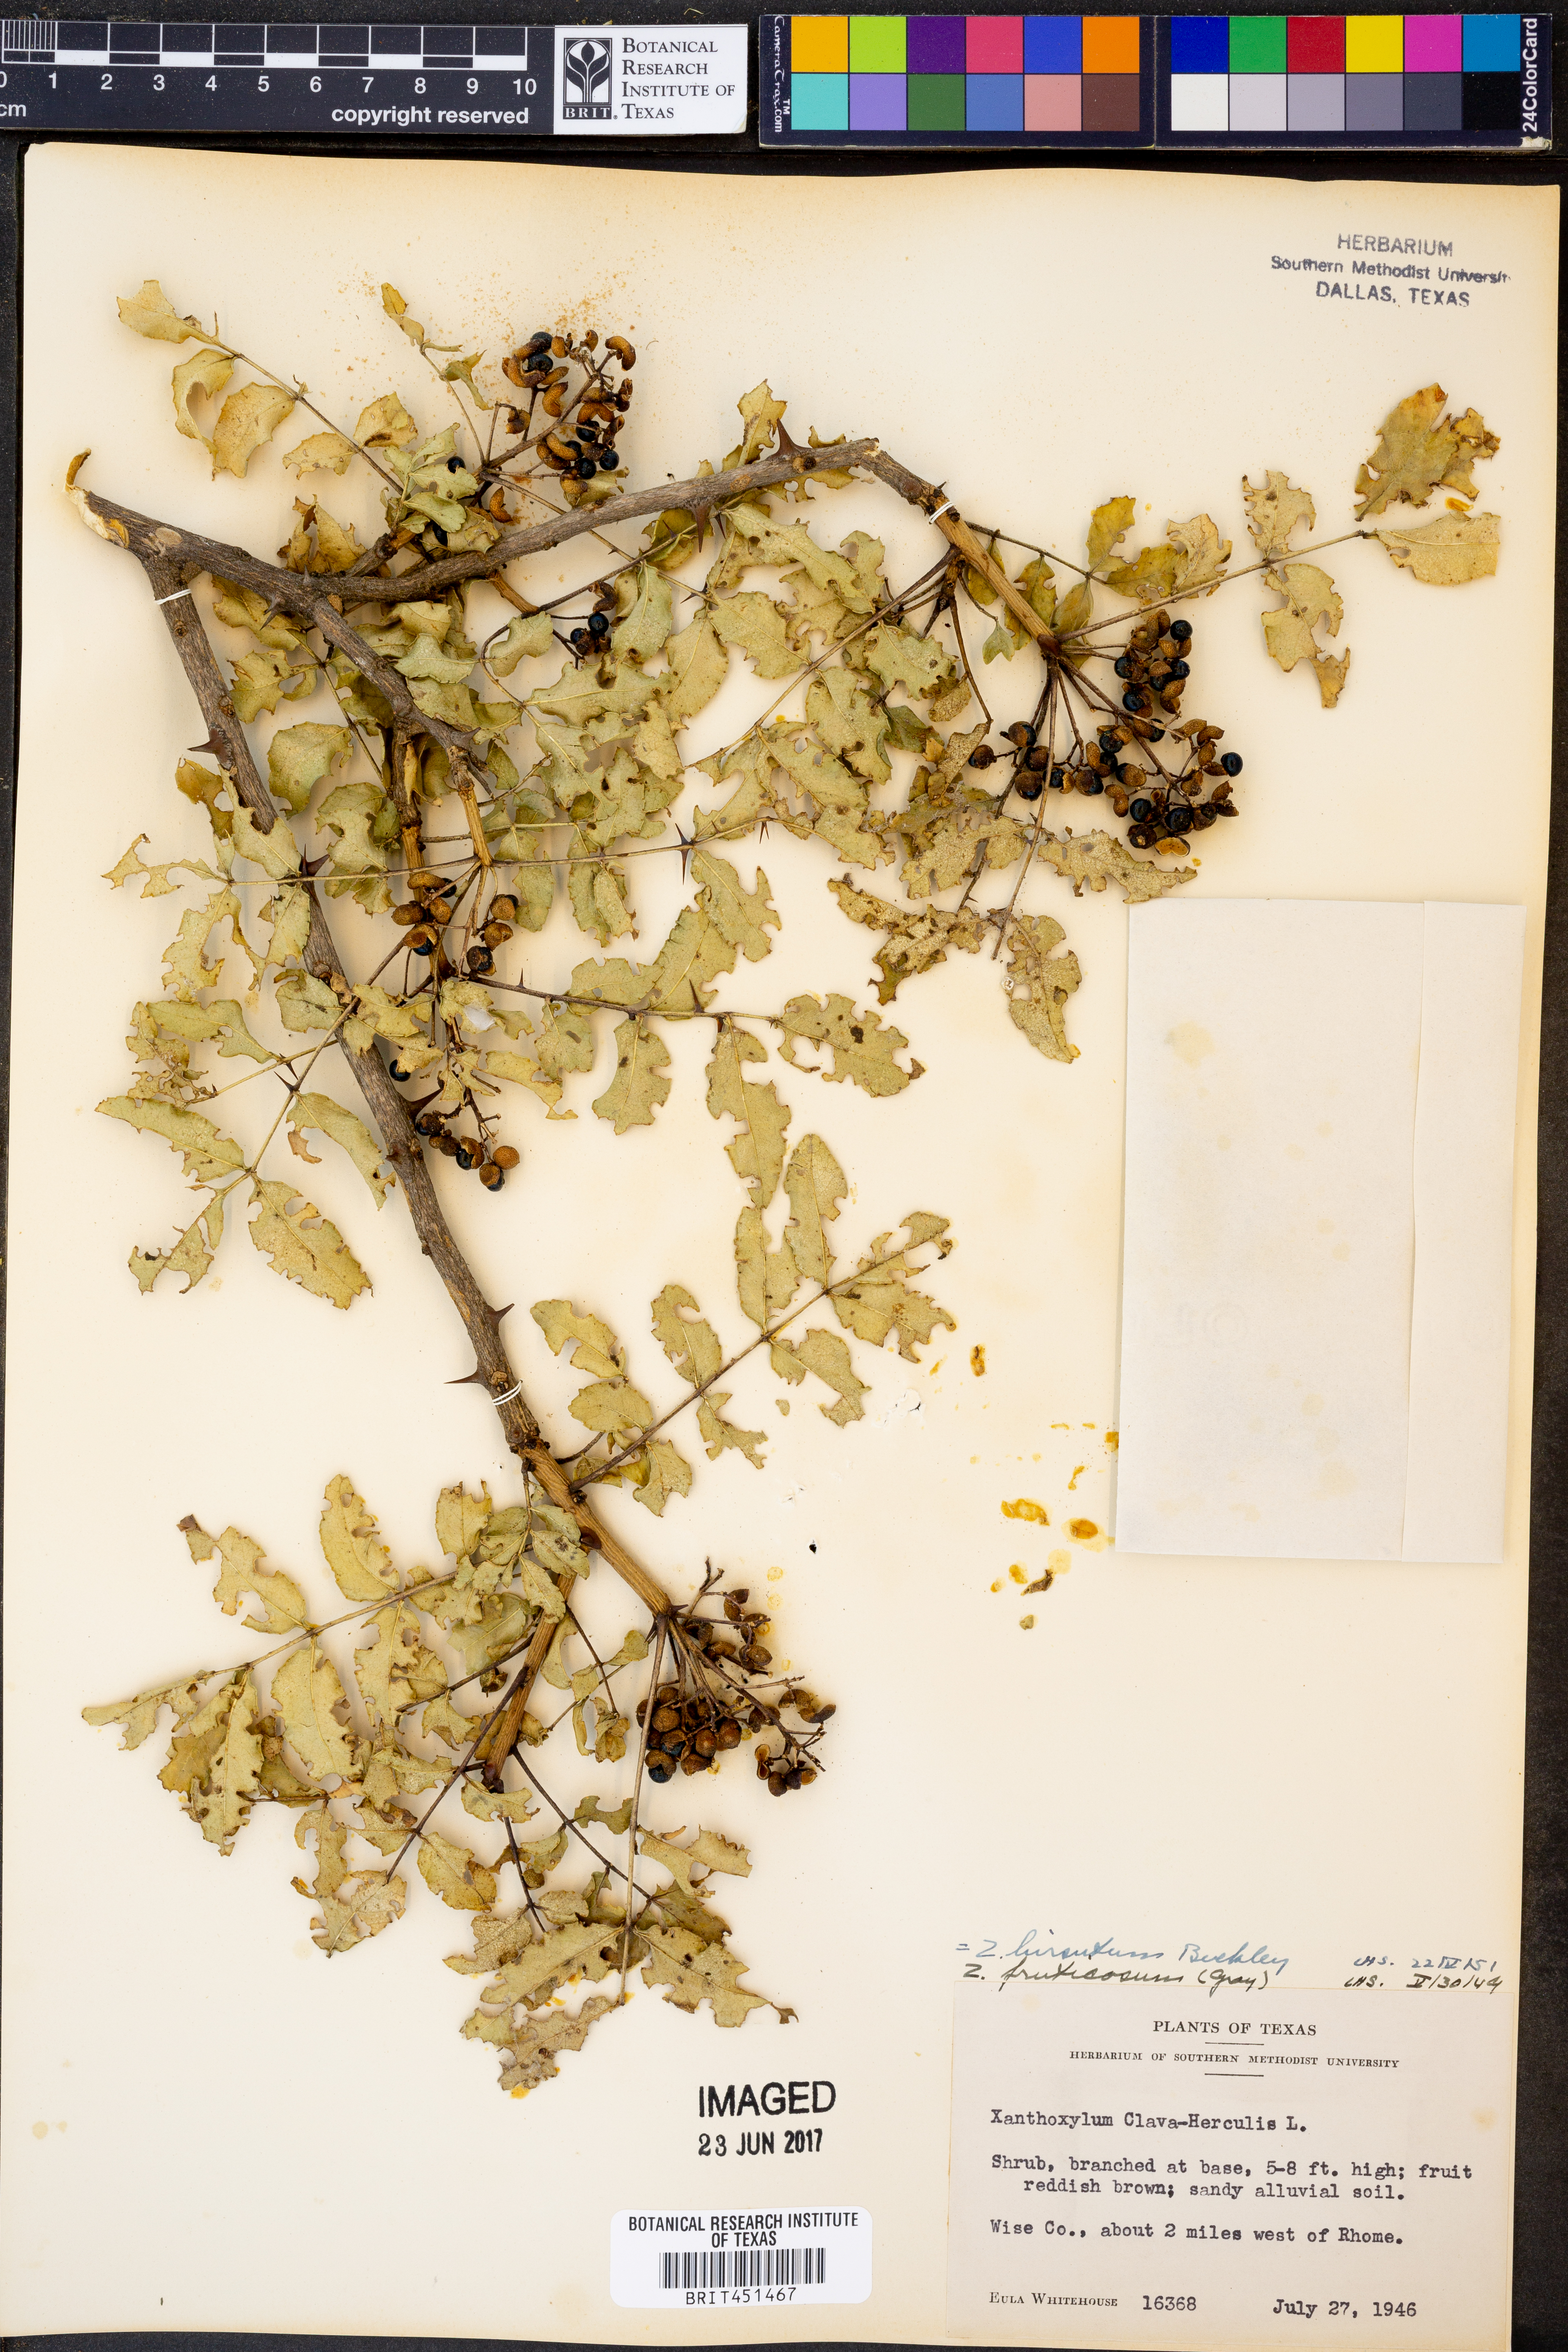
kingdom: Plantae
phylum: Tracheophyta
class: Magnoliopsida
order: Sapindales
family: Rutaceae
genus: Zanthoxylum
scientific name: Zanthoxylum clava-herculis
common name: Hercules'-club
